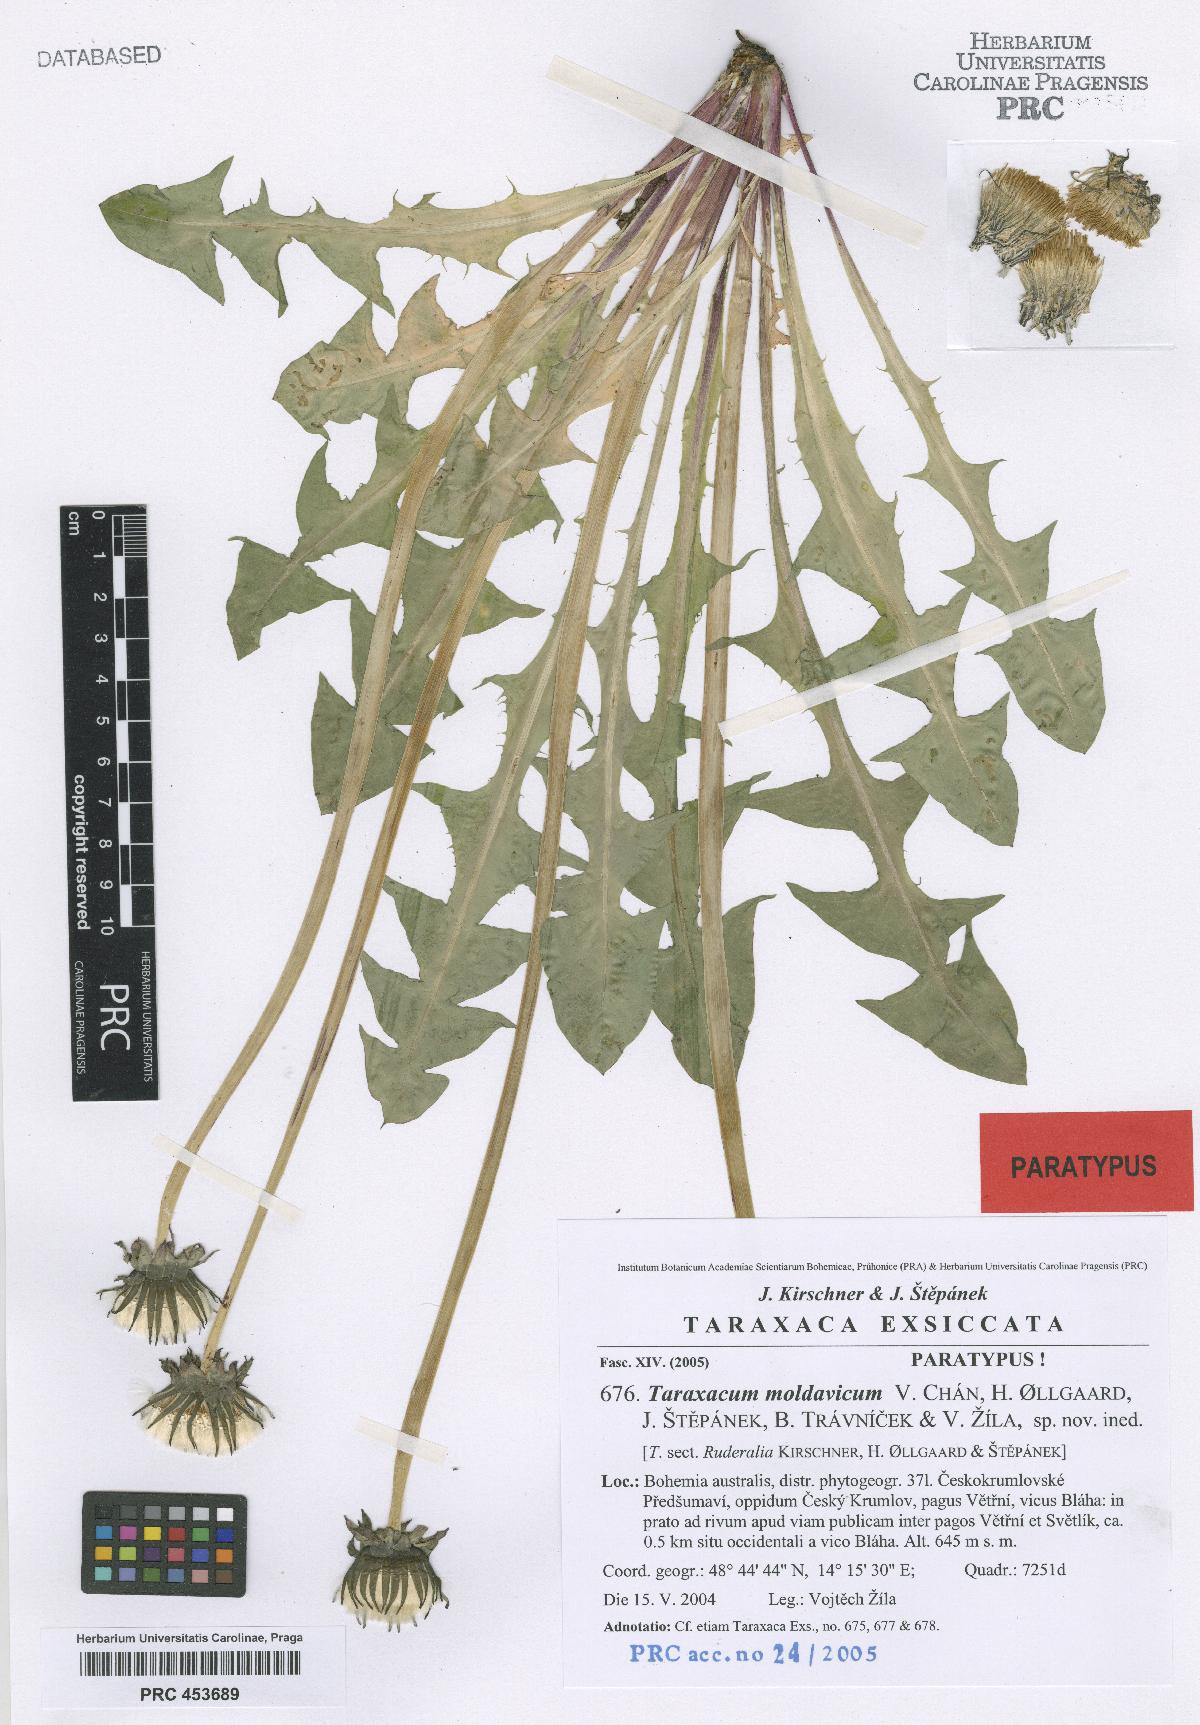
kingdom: Plantae
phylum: Tracheophyta
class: Magnoliopsida
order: Asterales
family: Asteraceae
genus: Taraxacum
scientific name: Taraxacum moldavicum
